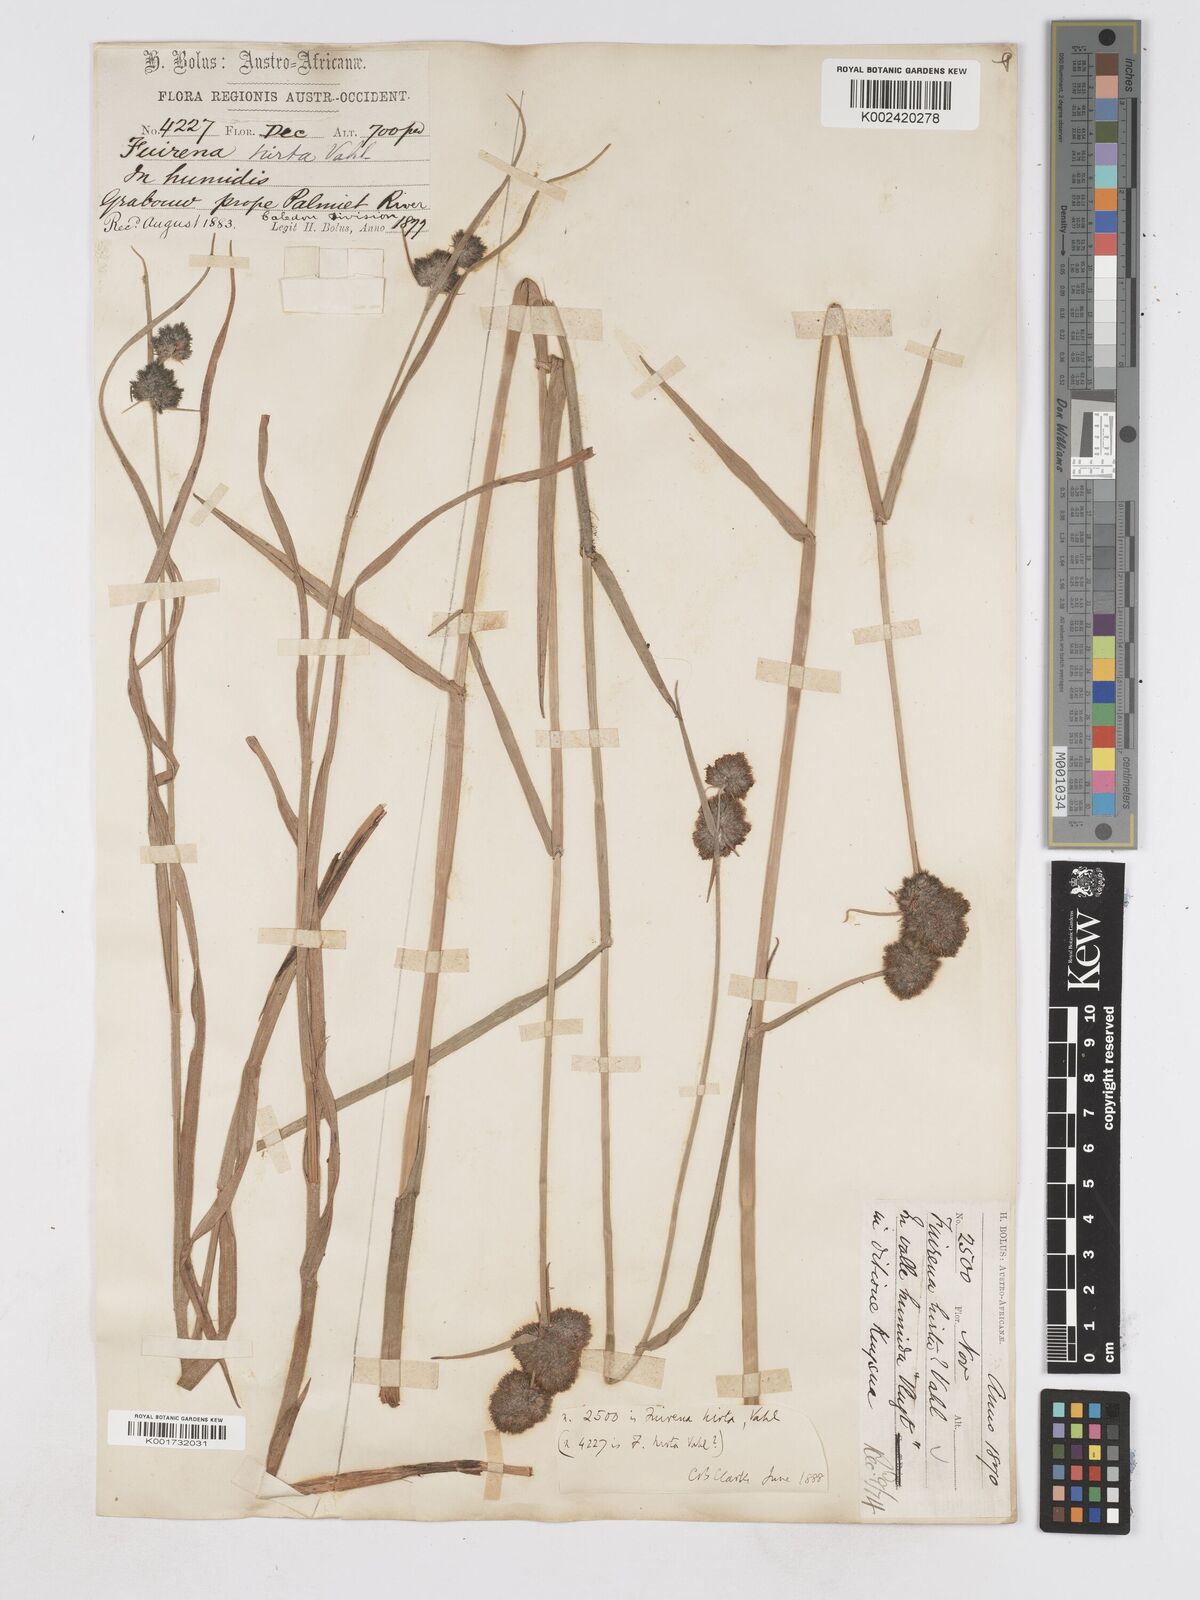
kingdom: Plantae
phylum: Tracheophyta
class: Liliopsida
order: Poales
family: Cyperaceae
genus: Fuirena
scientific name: Fuirena hirsuta
